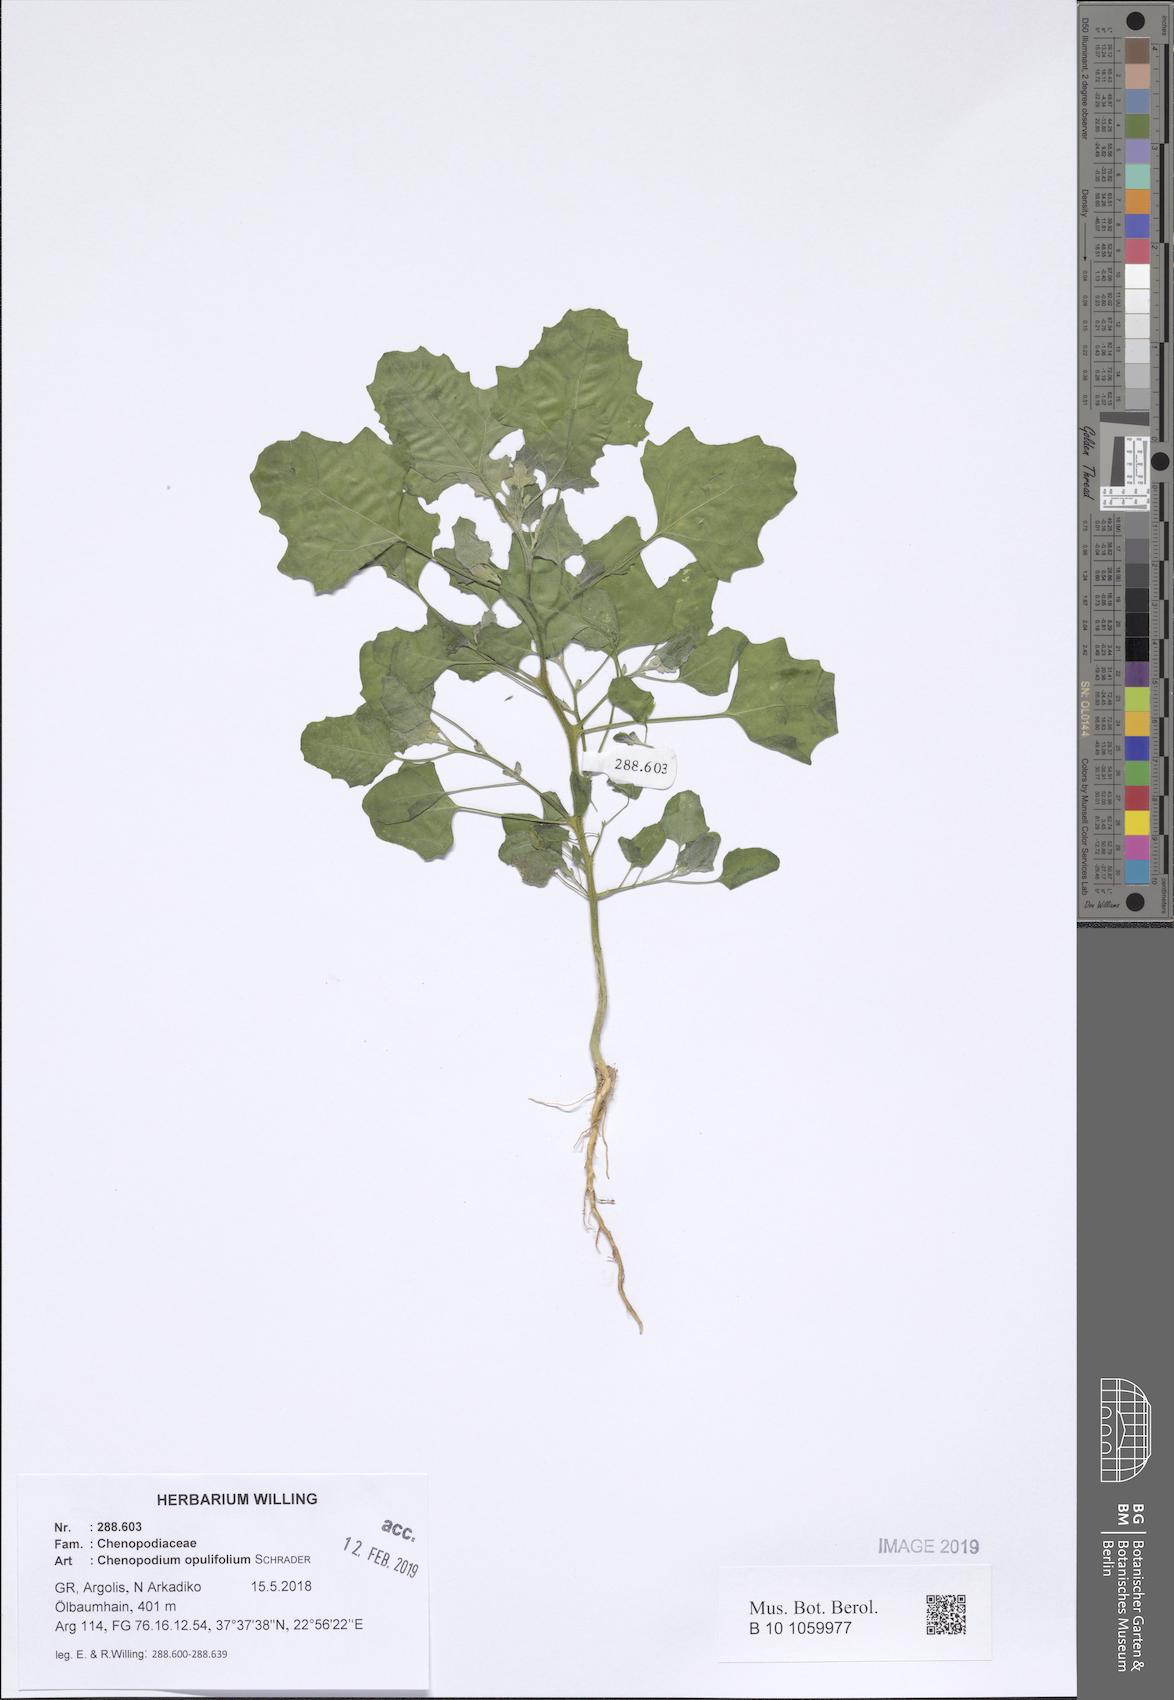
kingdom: Plantae
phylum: Tracheophyta
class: Magnoliopsida
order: Caryophyllales
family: Amaranthaceae
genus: Chenopodium
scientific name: Chenopodium opulifolium
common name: Grey goosefoot
